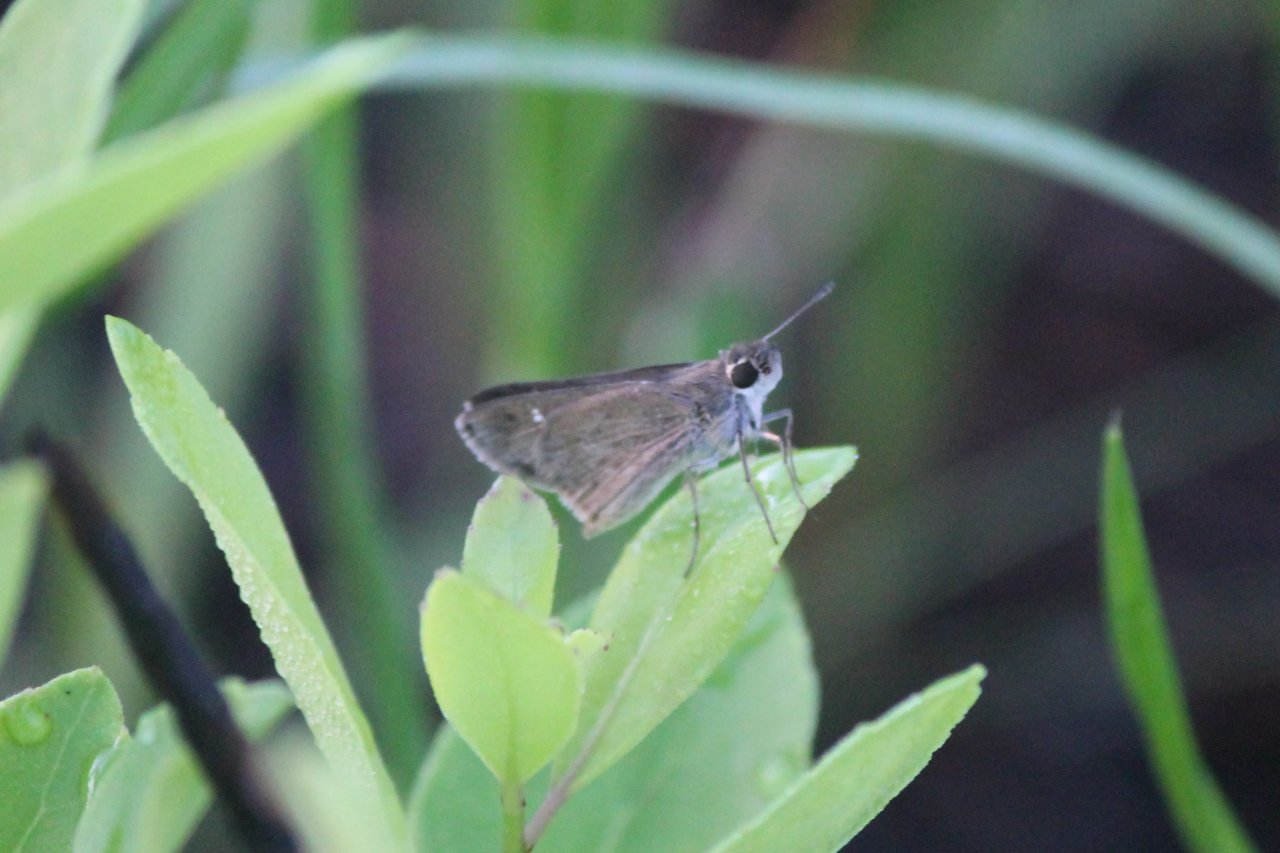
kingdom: Animalia
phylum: Arthropoda
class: Insecta
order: Lepidoptera
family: Hesperiidae
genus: Lerodea
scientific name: Lerodea eufala
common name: Eufala Skipper
